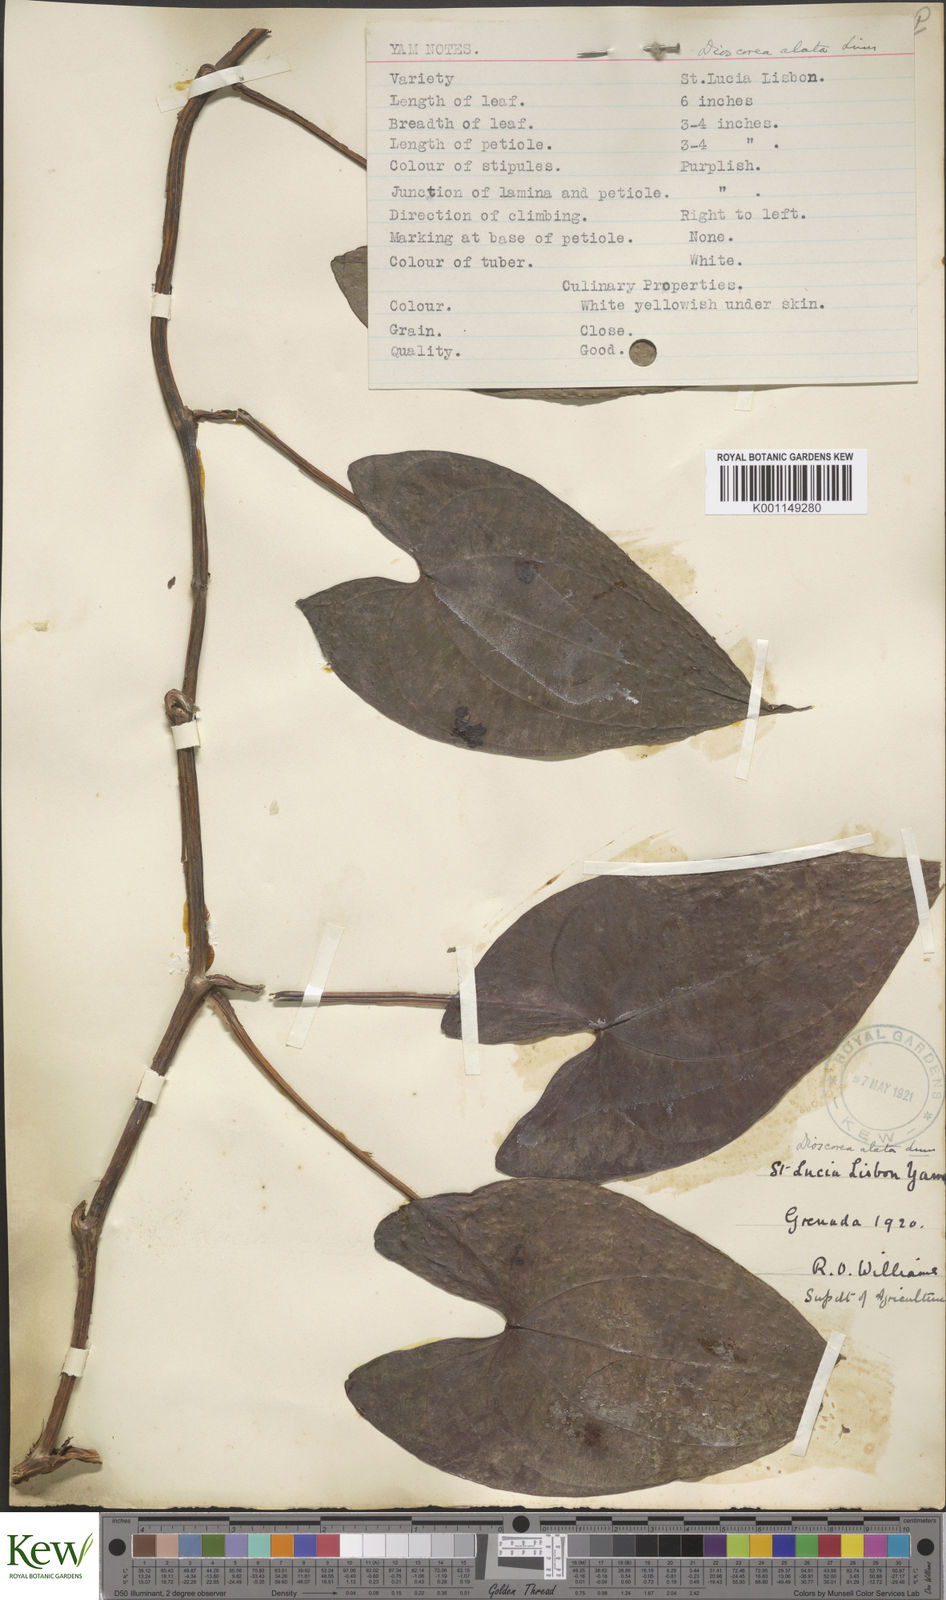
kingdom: Plantae
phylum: Tracheophyta
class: Liliopsida
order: Dioscoreales
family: Dioscoreaceae
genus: Dioscorea
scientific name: Dioscorea alata
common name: Water yam
